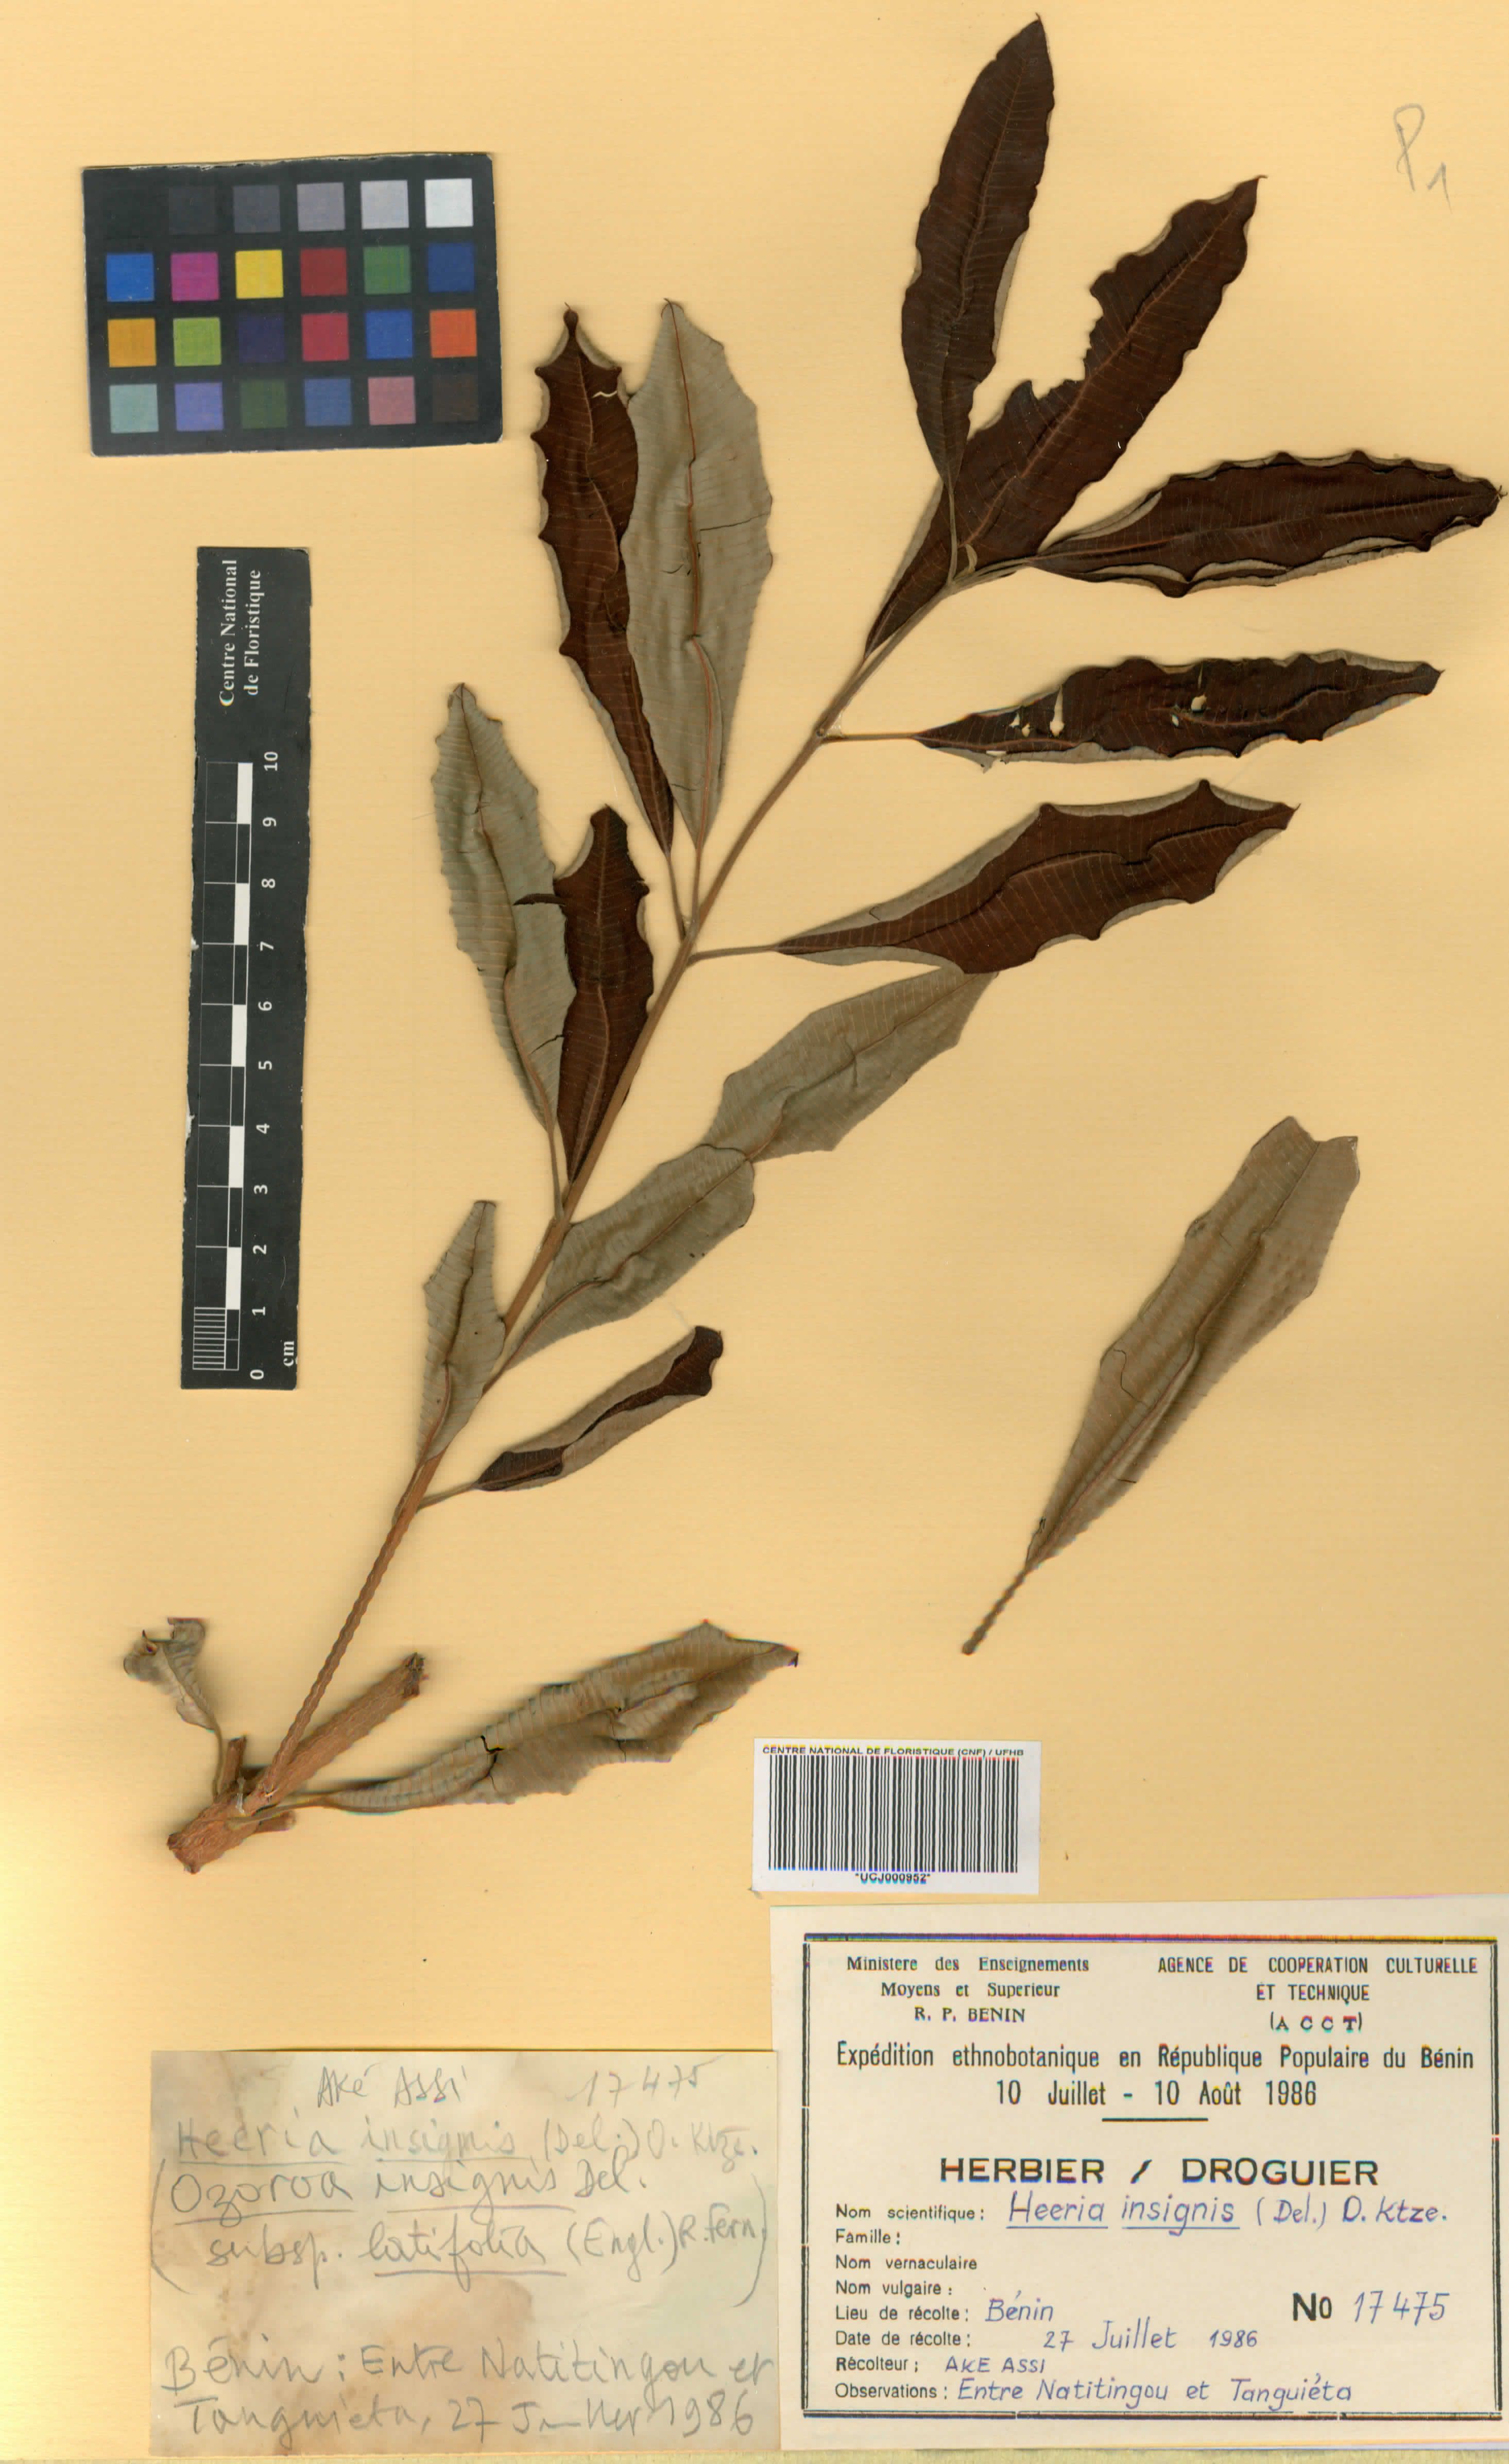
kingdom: Plantae
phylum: Tracheophyta
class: Magnoliopsida
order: Sapindales
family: Anacardiaceae
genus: Ozoroa
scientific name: Ozoroa
